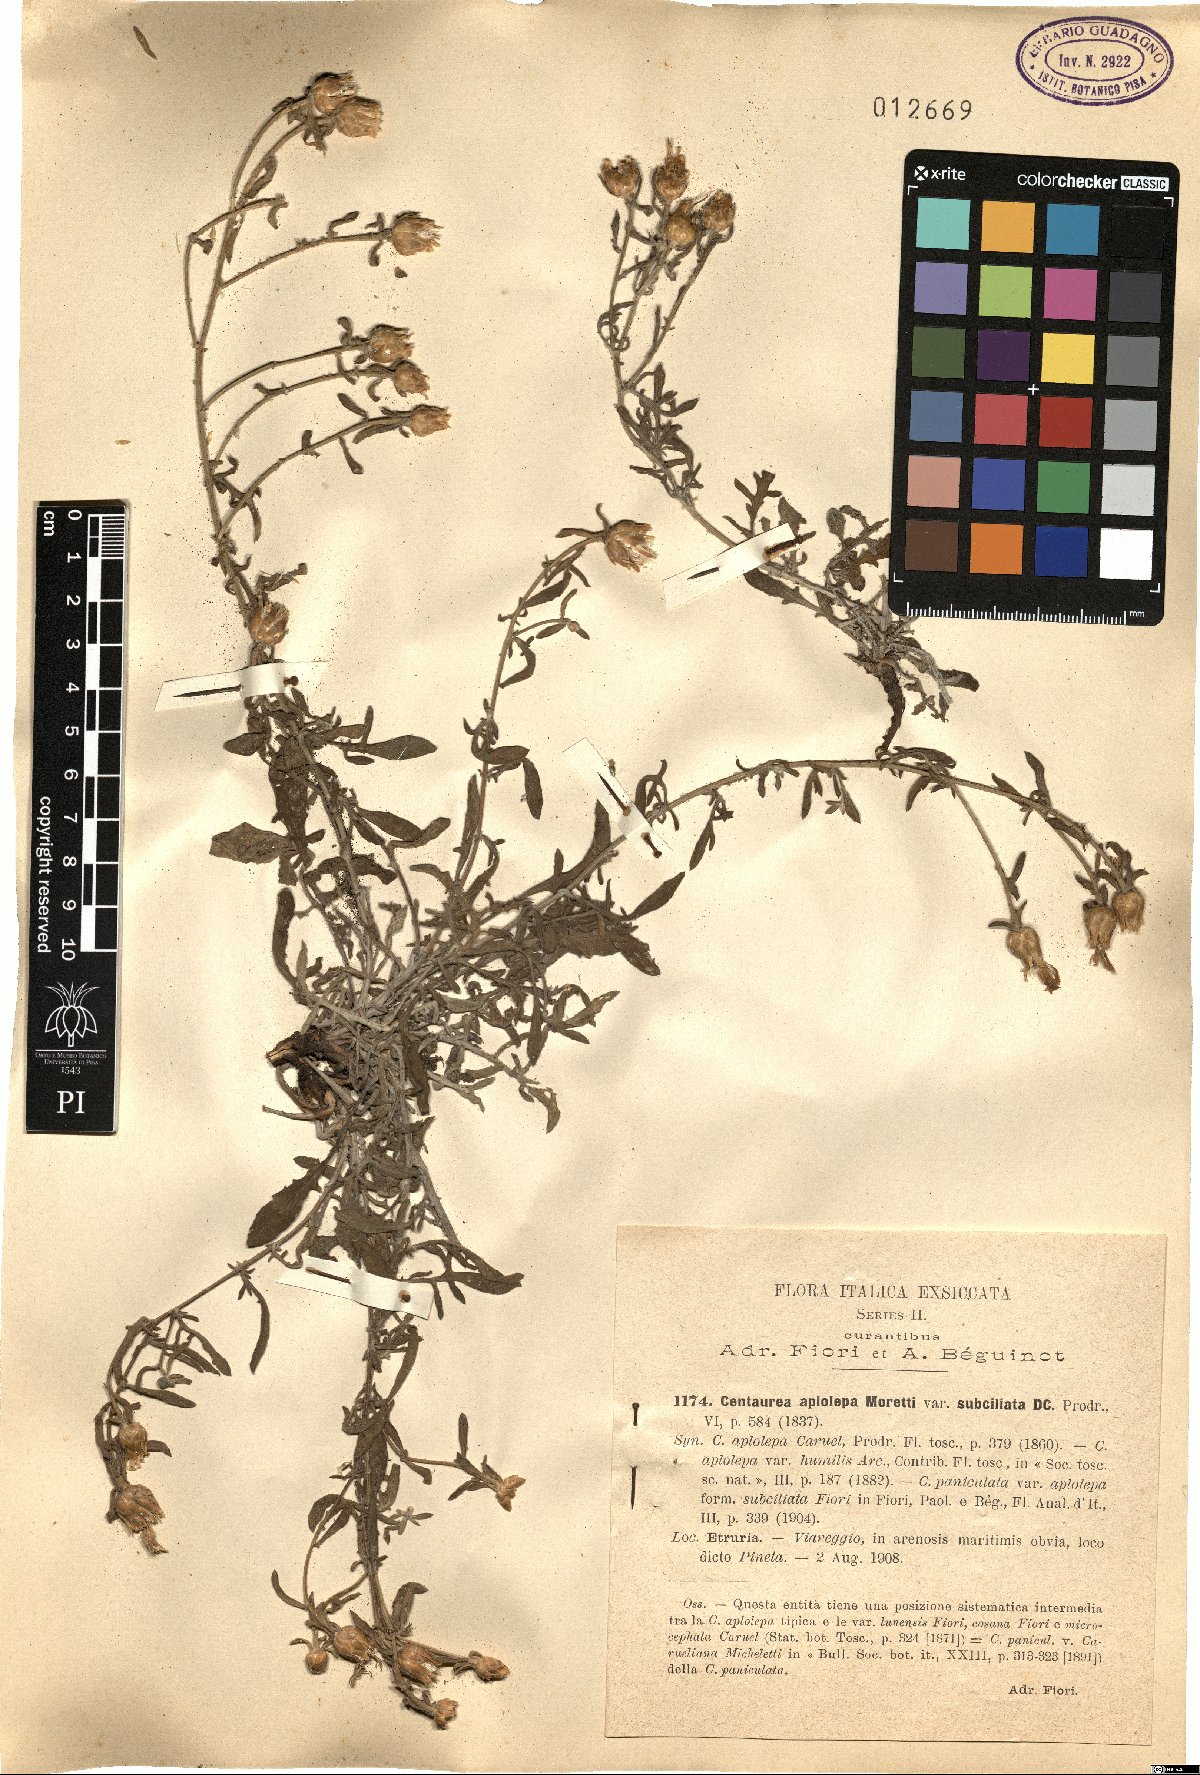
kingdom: Plantae
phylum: Tracheophyta
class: Magnoliopsida
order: Asterales
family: Asteraceae
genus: Centaurea
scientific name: Centaurea aplolepa
